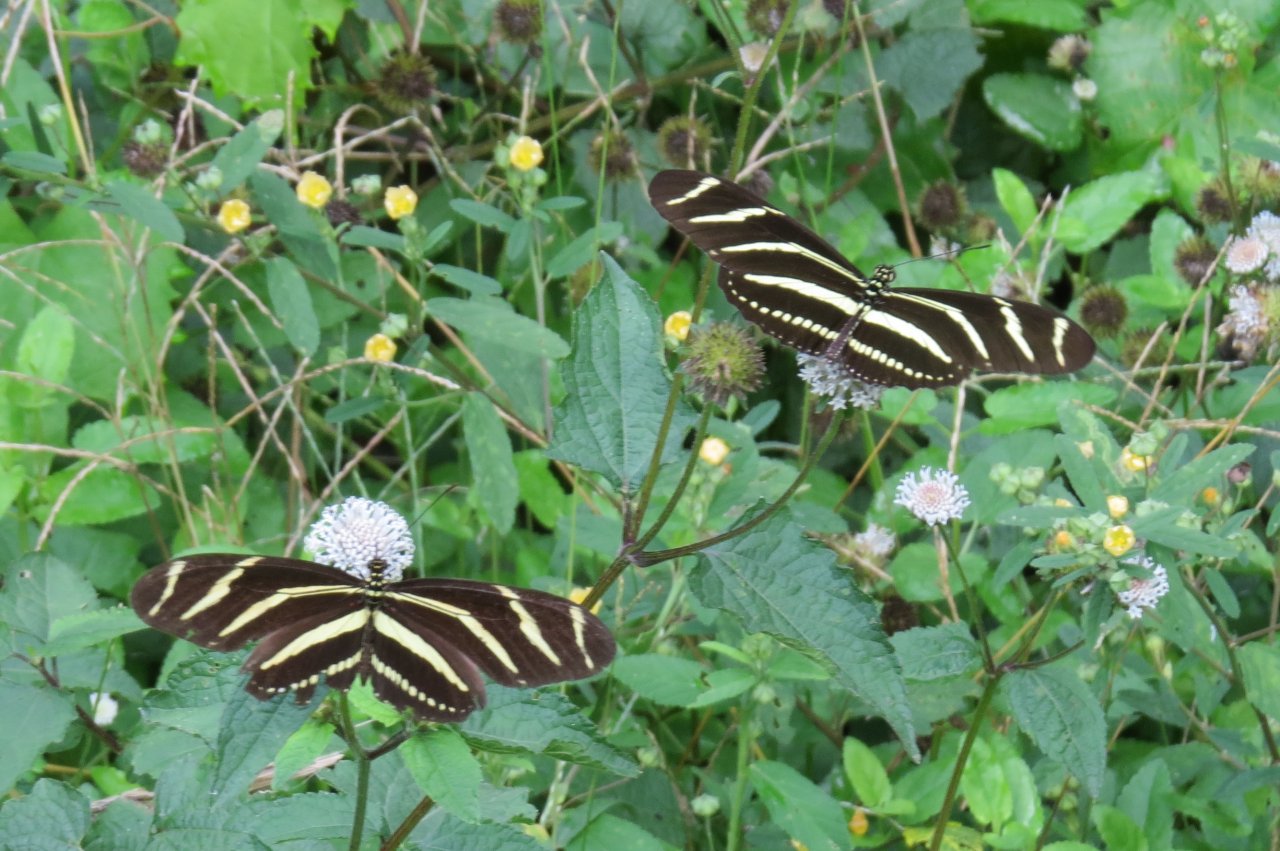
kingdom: Animalia
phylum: Arthropoda
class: Insecta
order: Lepidoptera
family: Nymphalidae
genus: Heliconius
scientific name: Heliconius charithonia
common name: Zebra Longwing
